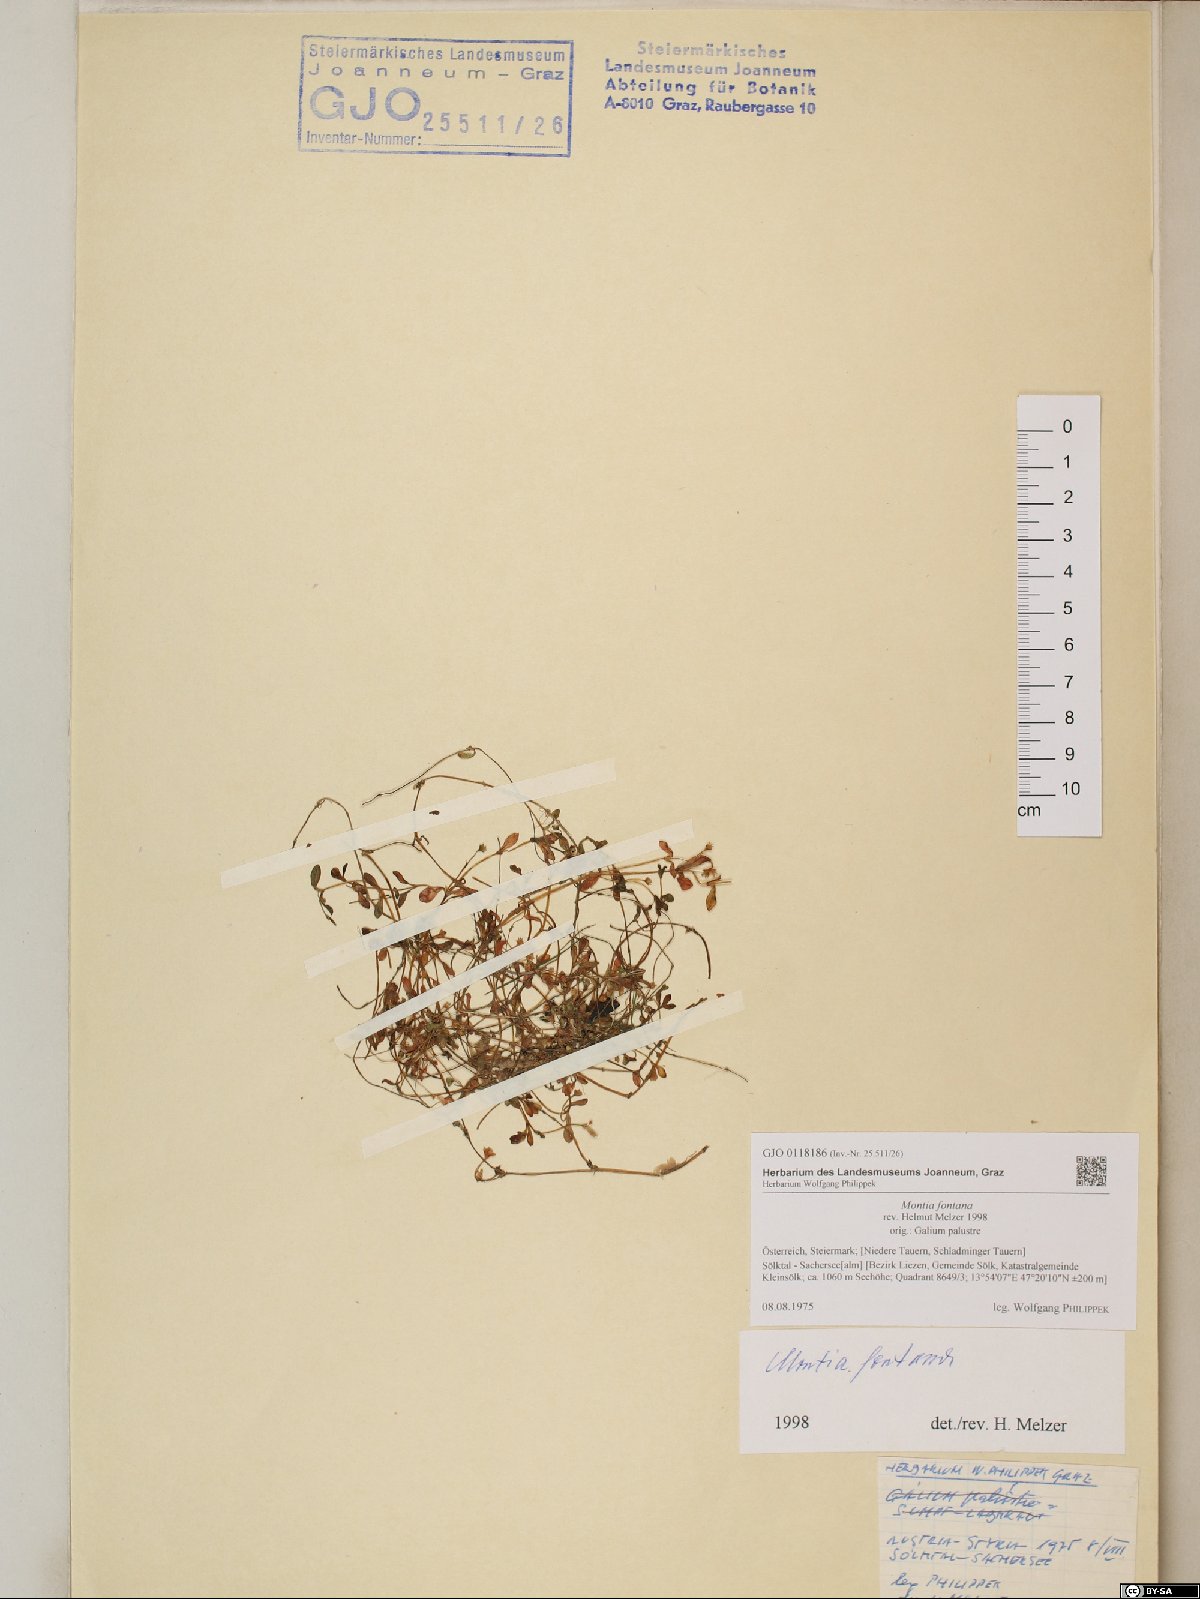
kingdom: Plantae
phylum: Tracheophyta
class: Magnoliopsida
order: Caryophyllales
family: Montiaceae
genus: Montia
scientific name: Montia fontana
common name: Blinks
